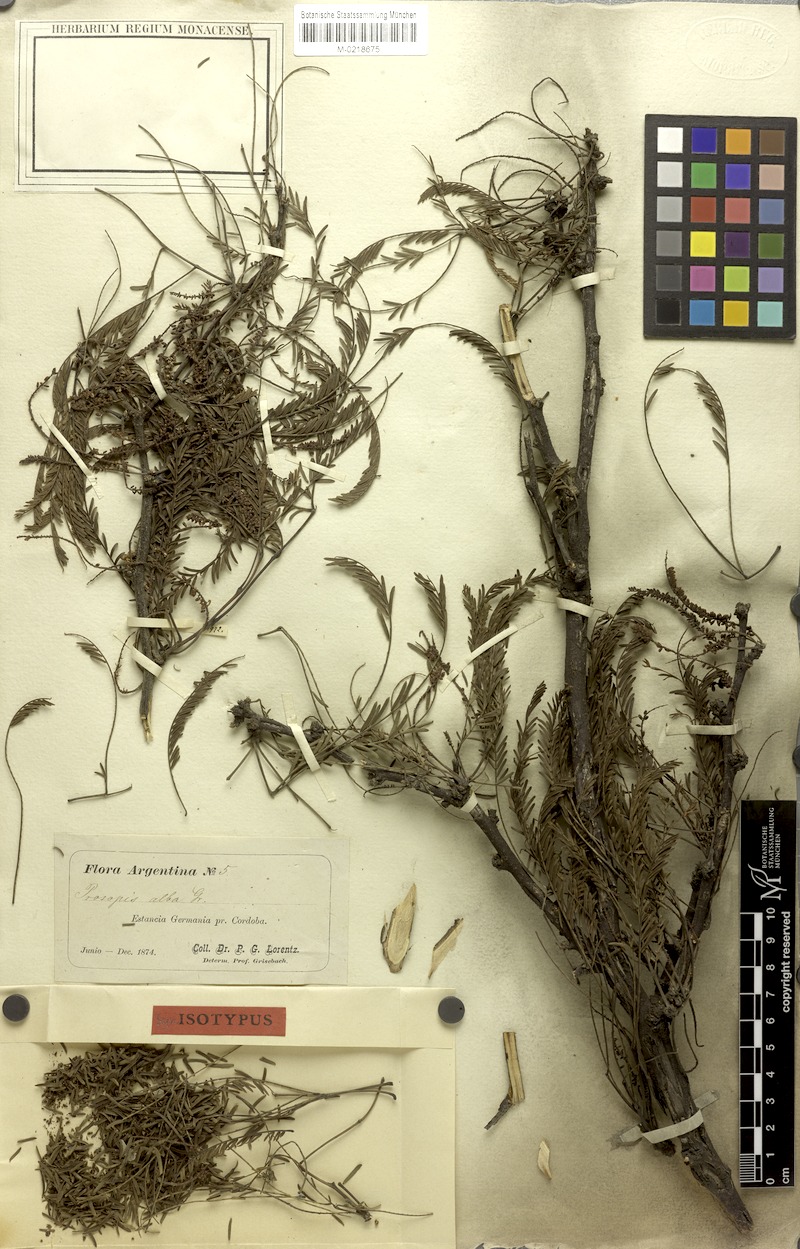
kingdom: Plantae
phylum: Tracheophyta
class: Magnoliopsida
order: Fabales
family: Fabaceae
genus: Prosopis
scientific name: Prosopis alba
